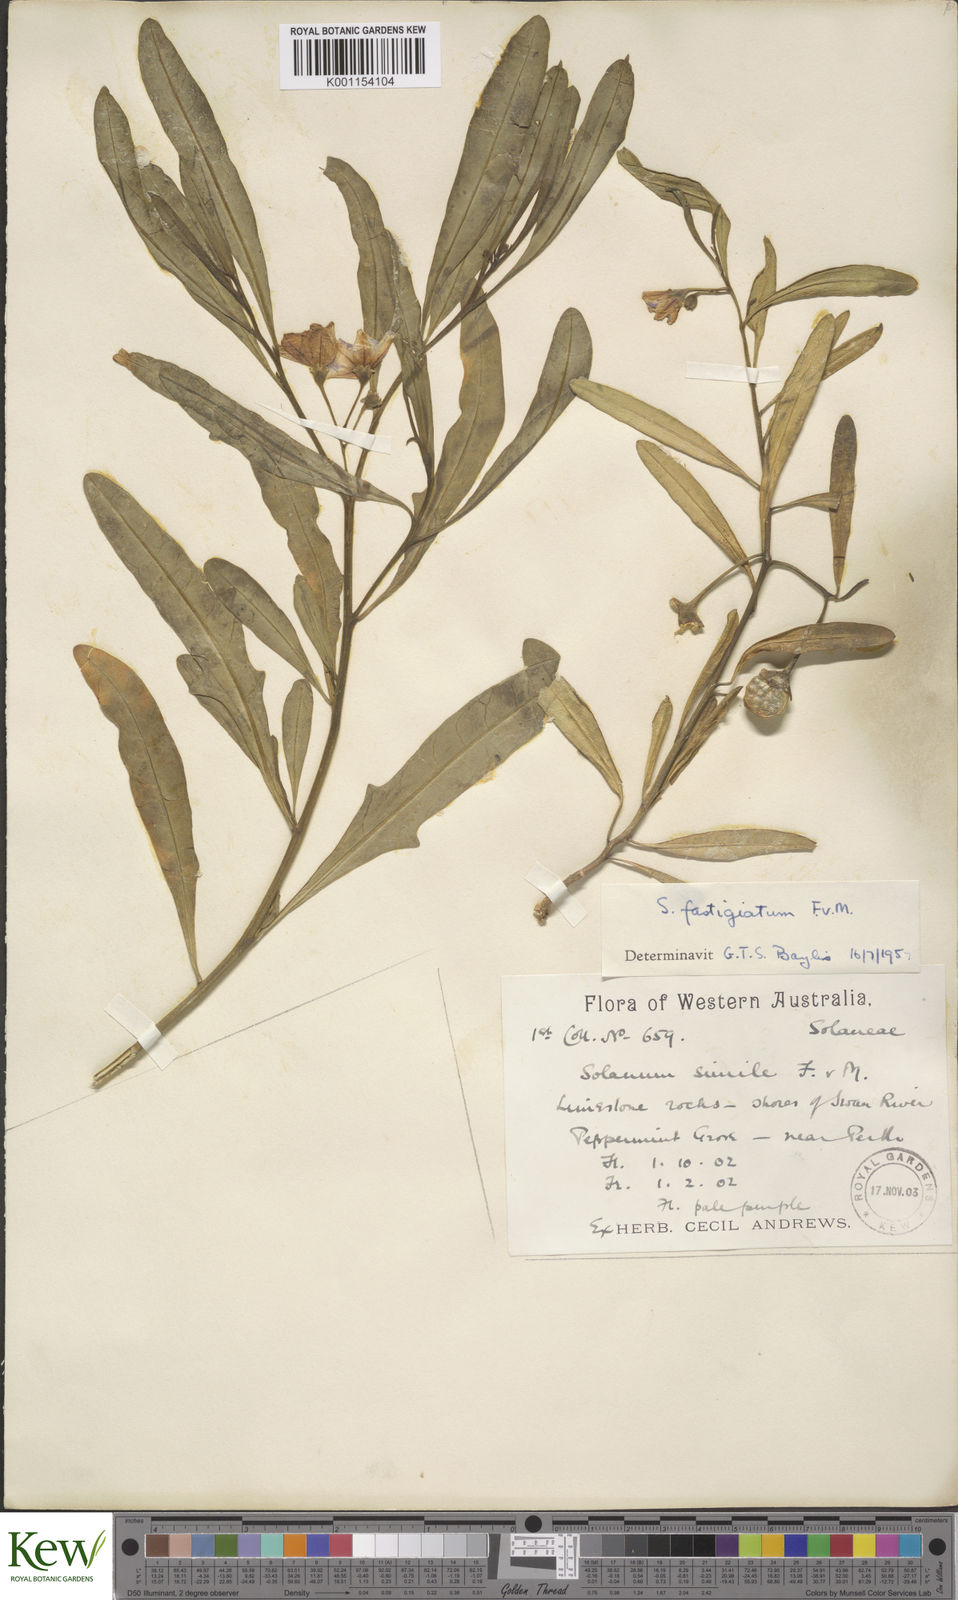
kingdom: Plantae
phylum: Tracheophyta
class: Magnoliopsida
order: Solanales
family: Solanaceae
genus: Solanum
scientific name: Solanum symonii
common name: South australian kangaroo-apple
